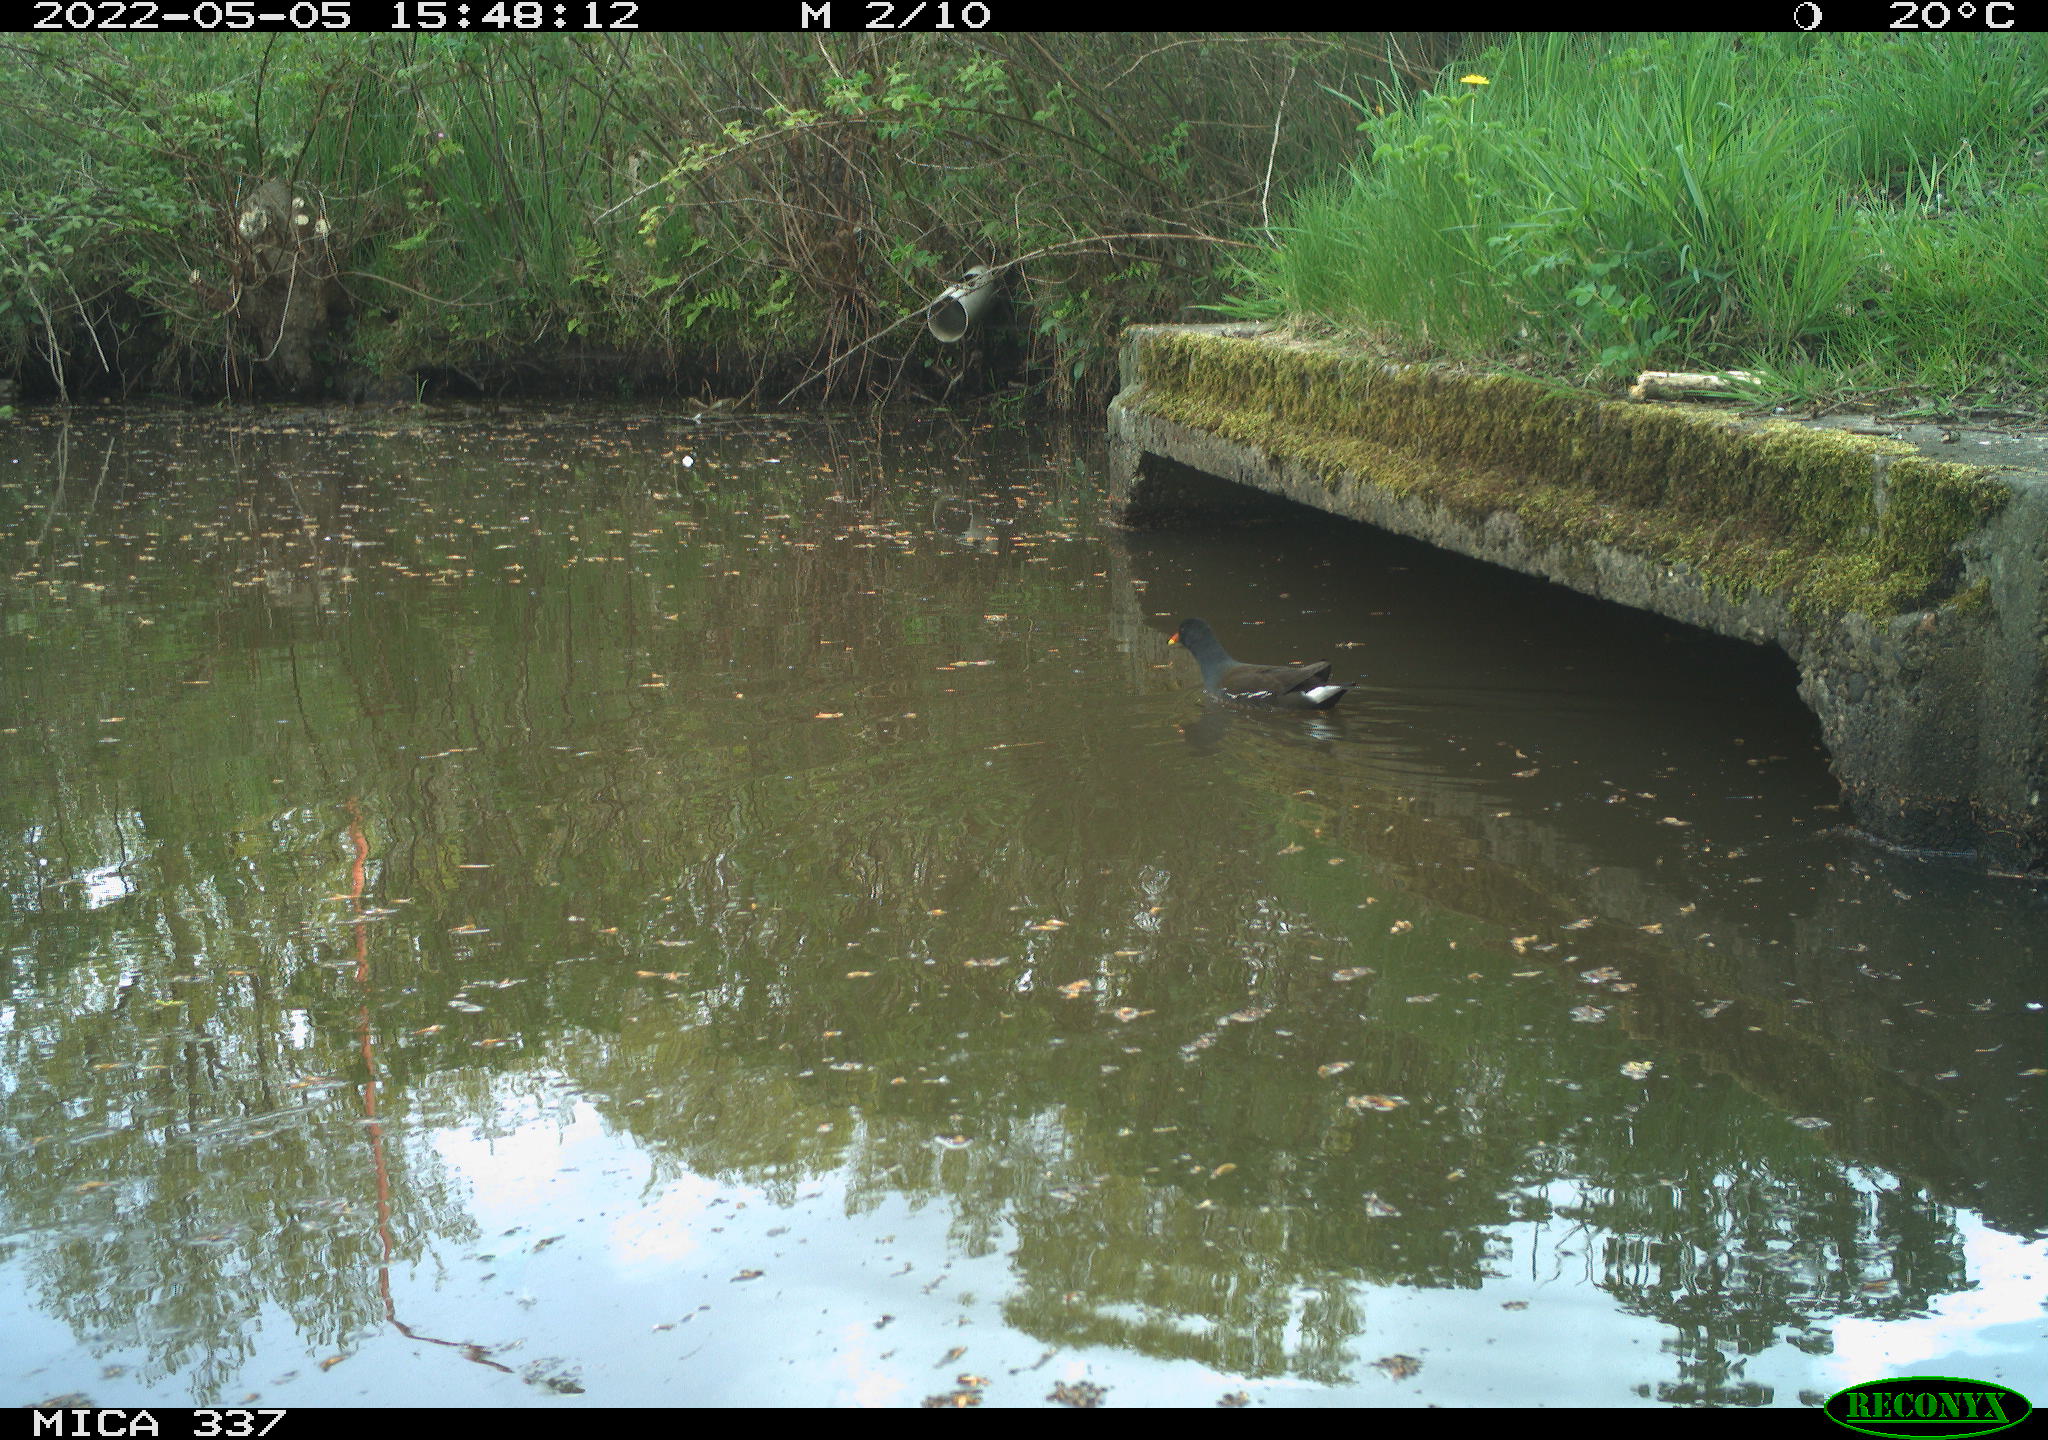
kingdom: Animalia
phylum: Chordata
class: Aves
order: Gruiformes
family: Rallidae
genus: Gallinula
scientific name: Gallinula chloropus
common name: Common moorhen
